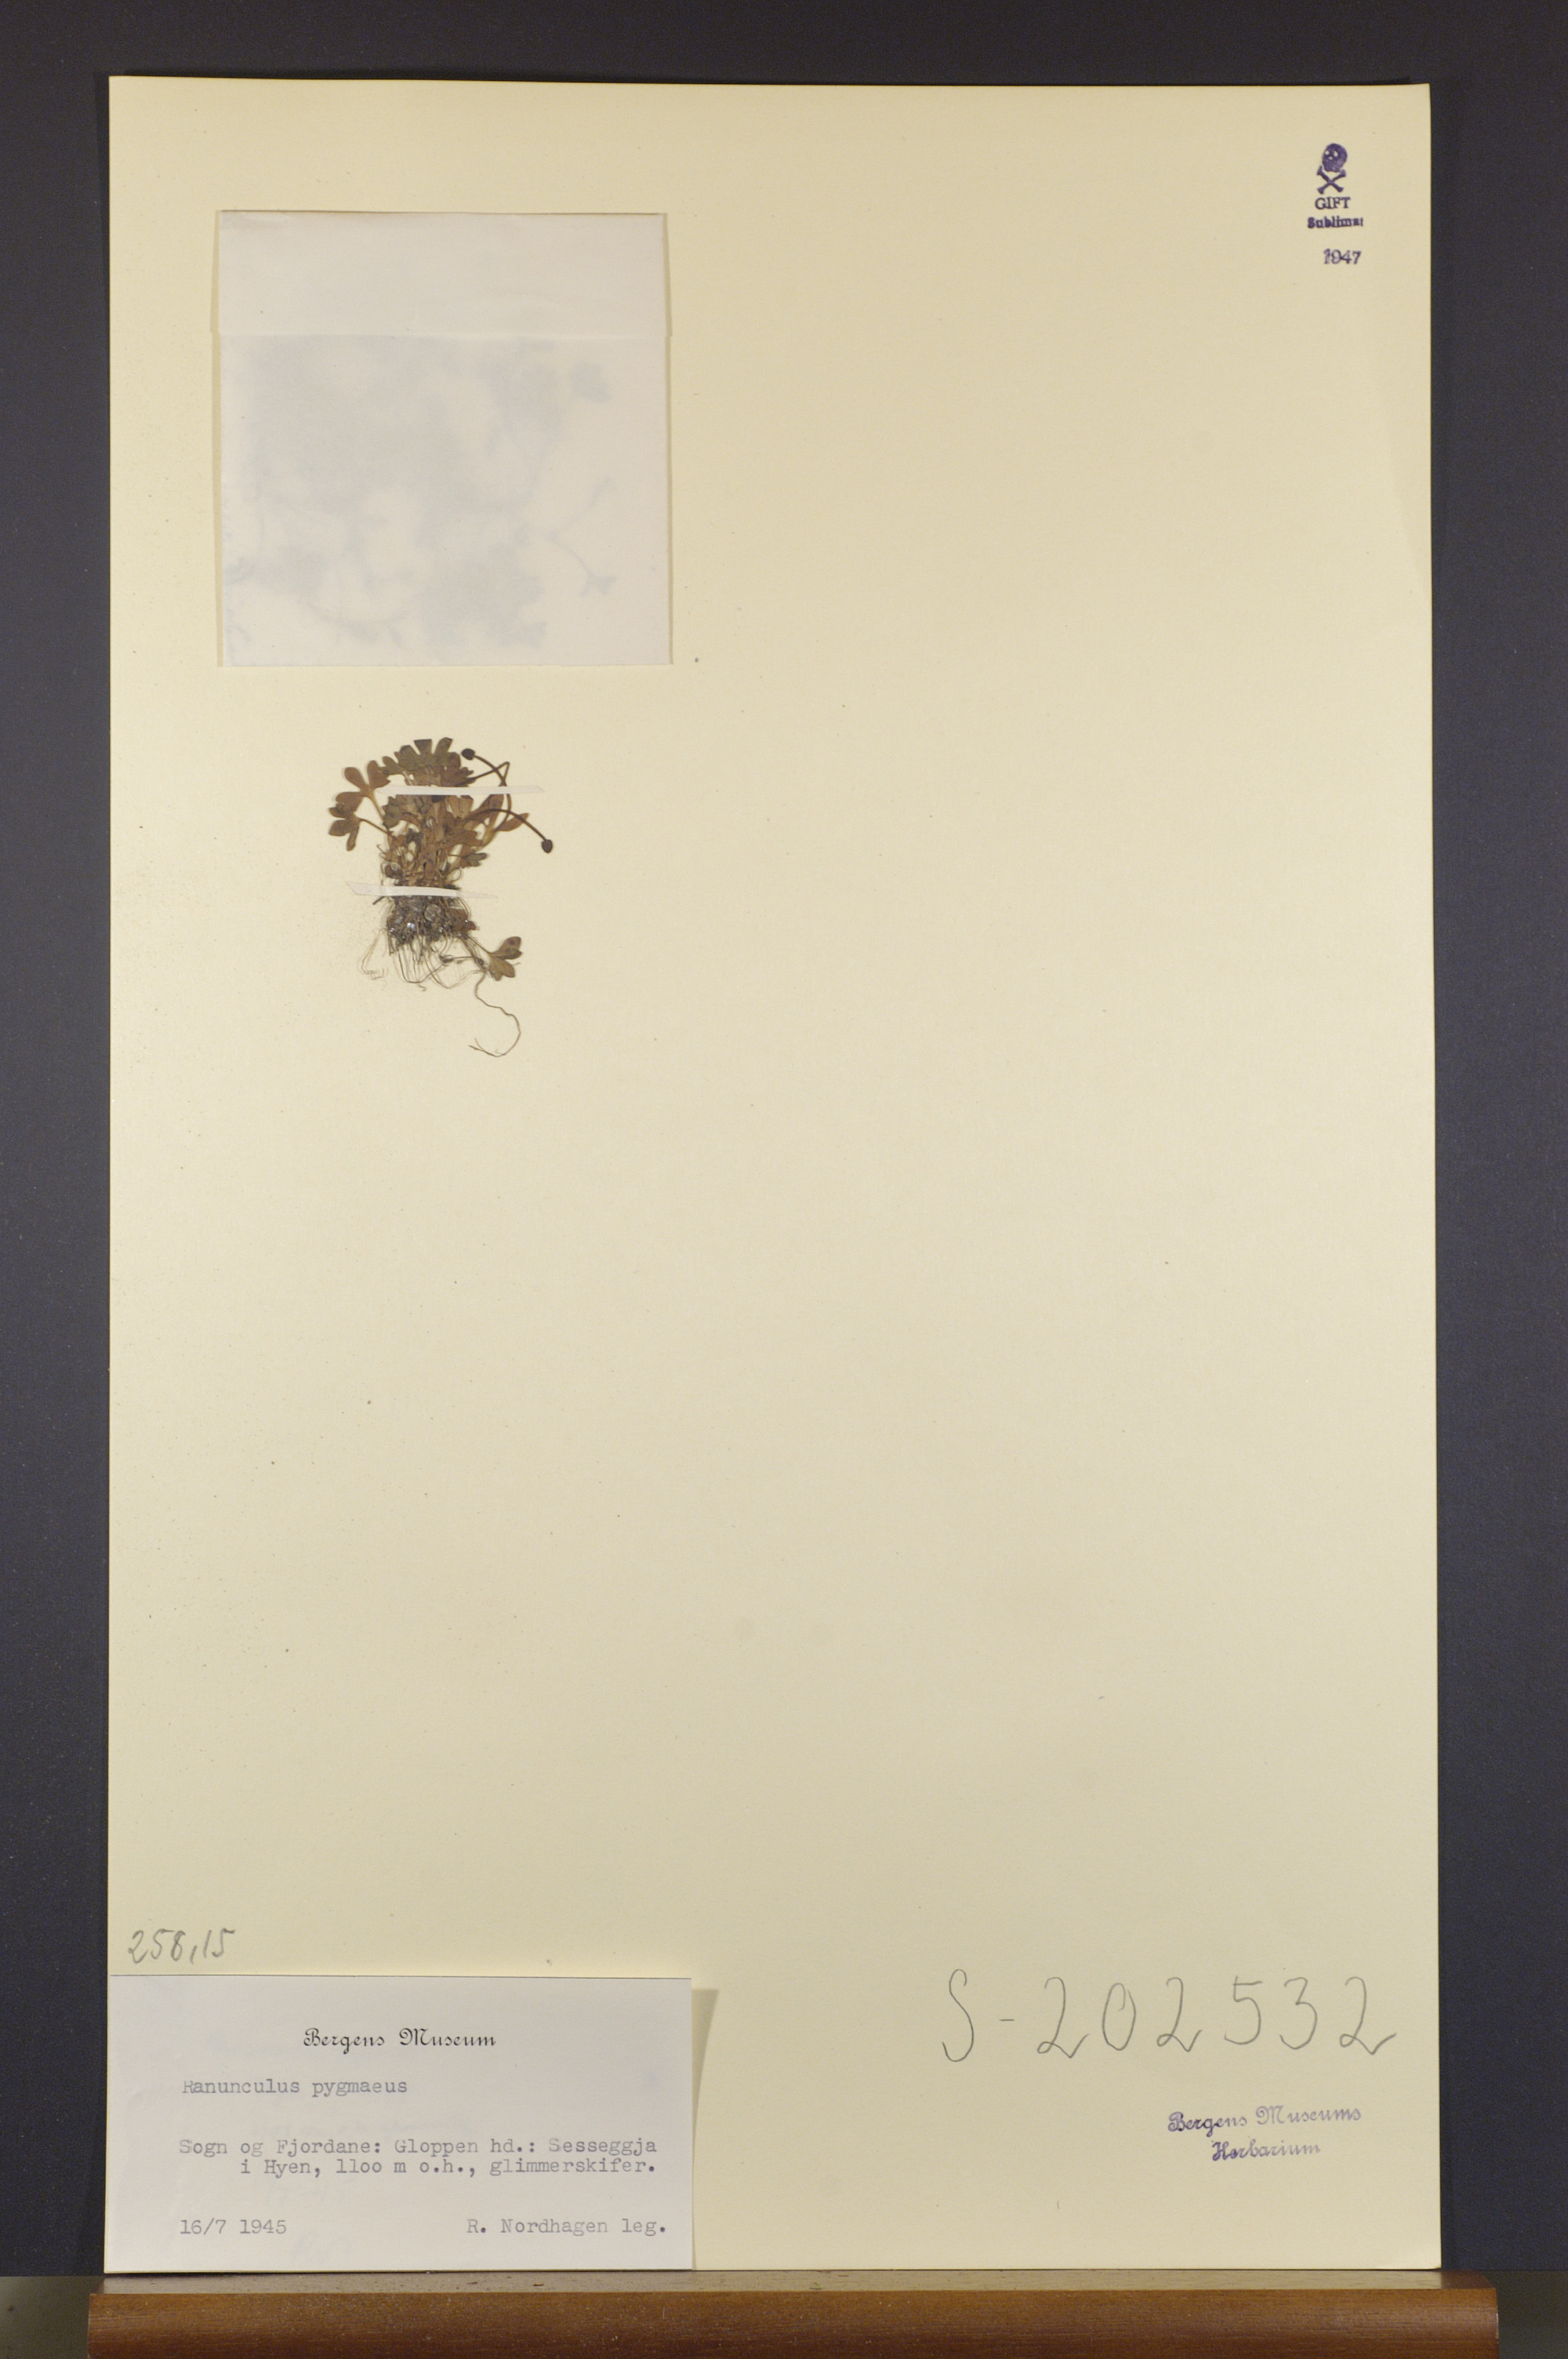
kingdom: Plantae
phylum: Tracheophyta
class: Magnoliopsida
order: Ranunculales
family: Ranunculaceae
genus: Ranunculus
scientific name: Ranunculus pygmaeus
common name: Dwarf buttercup
